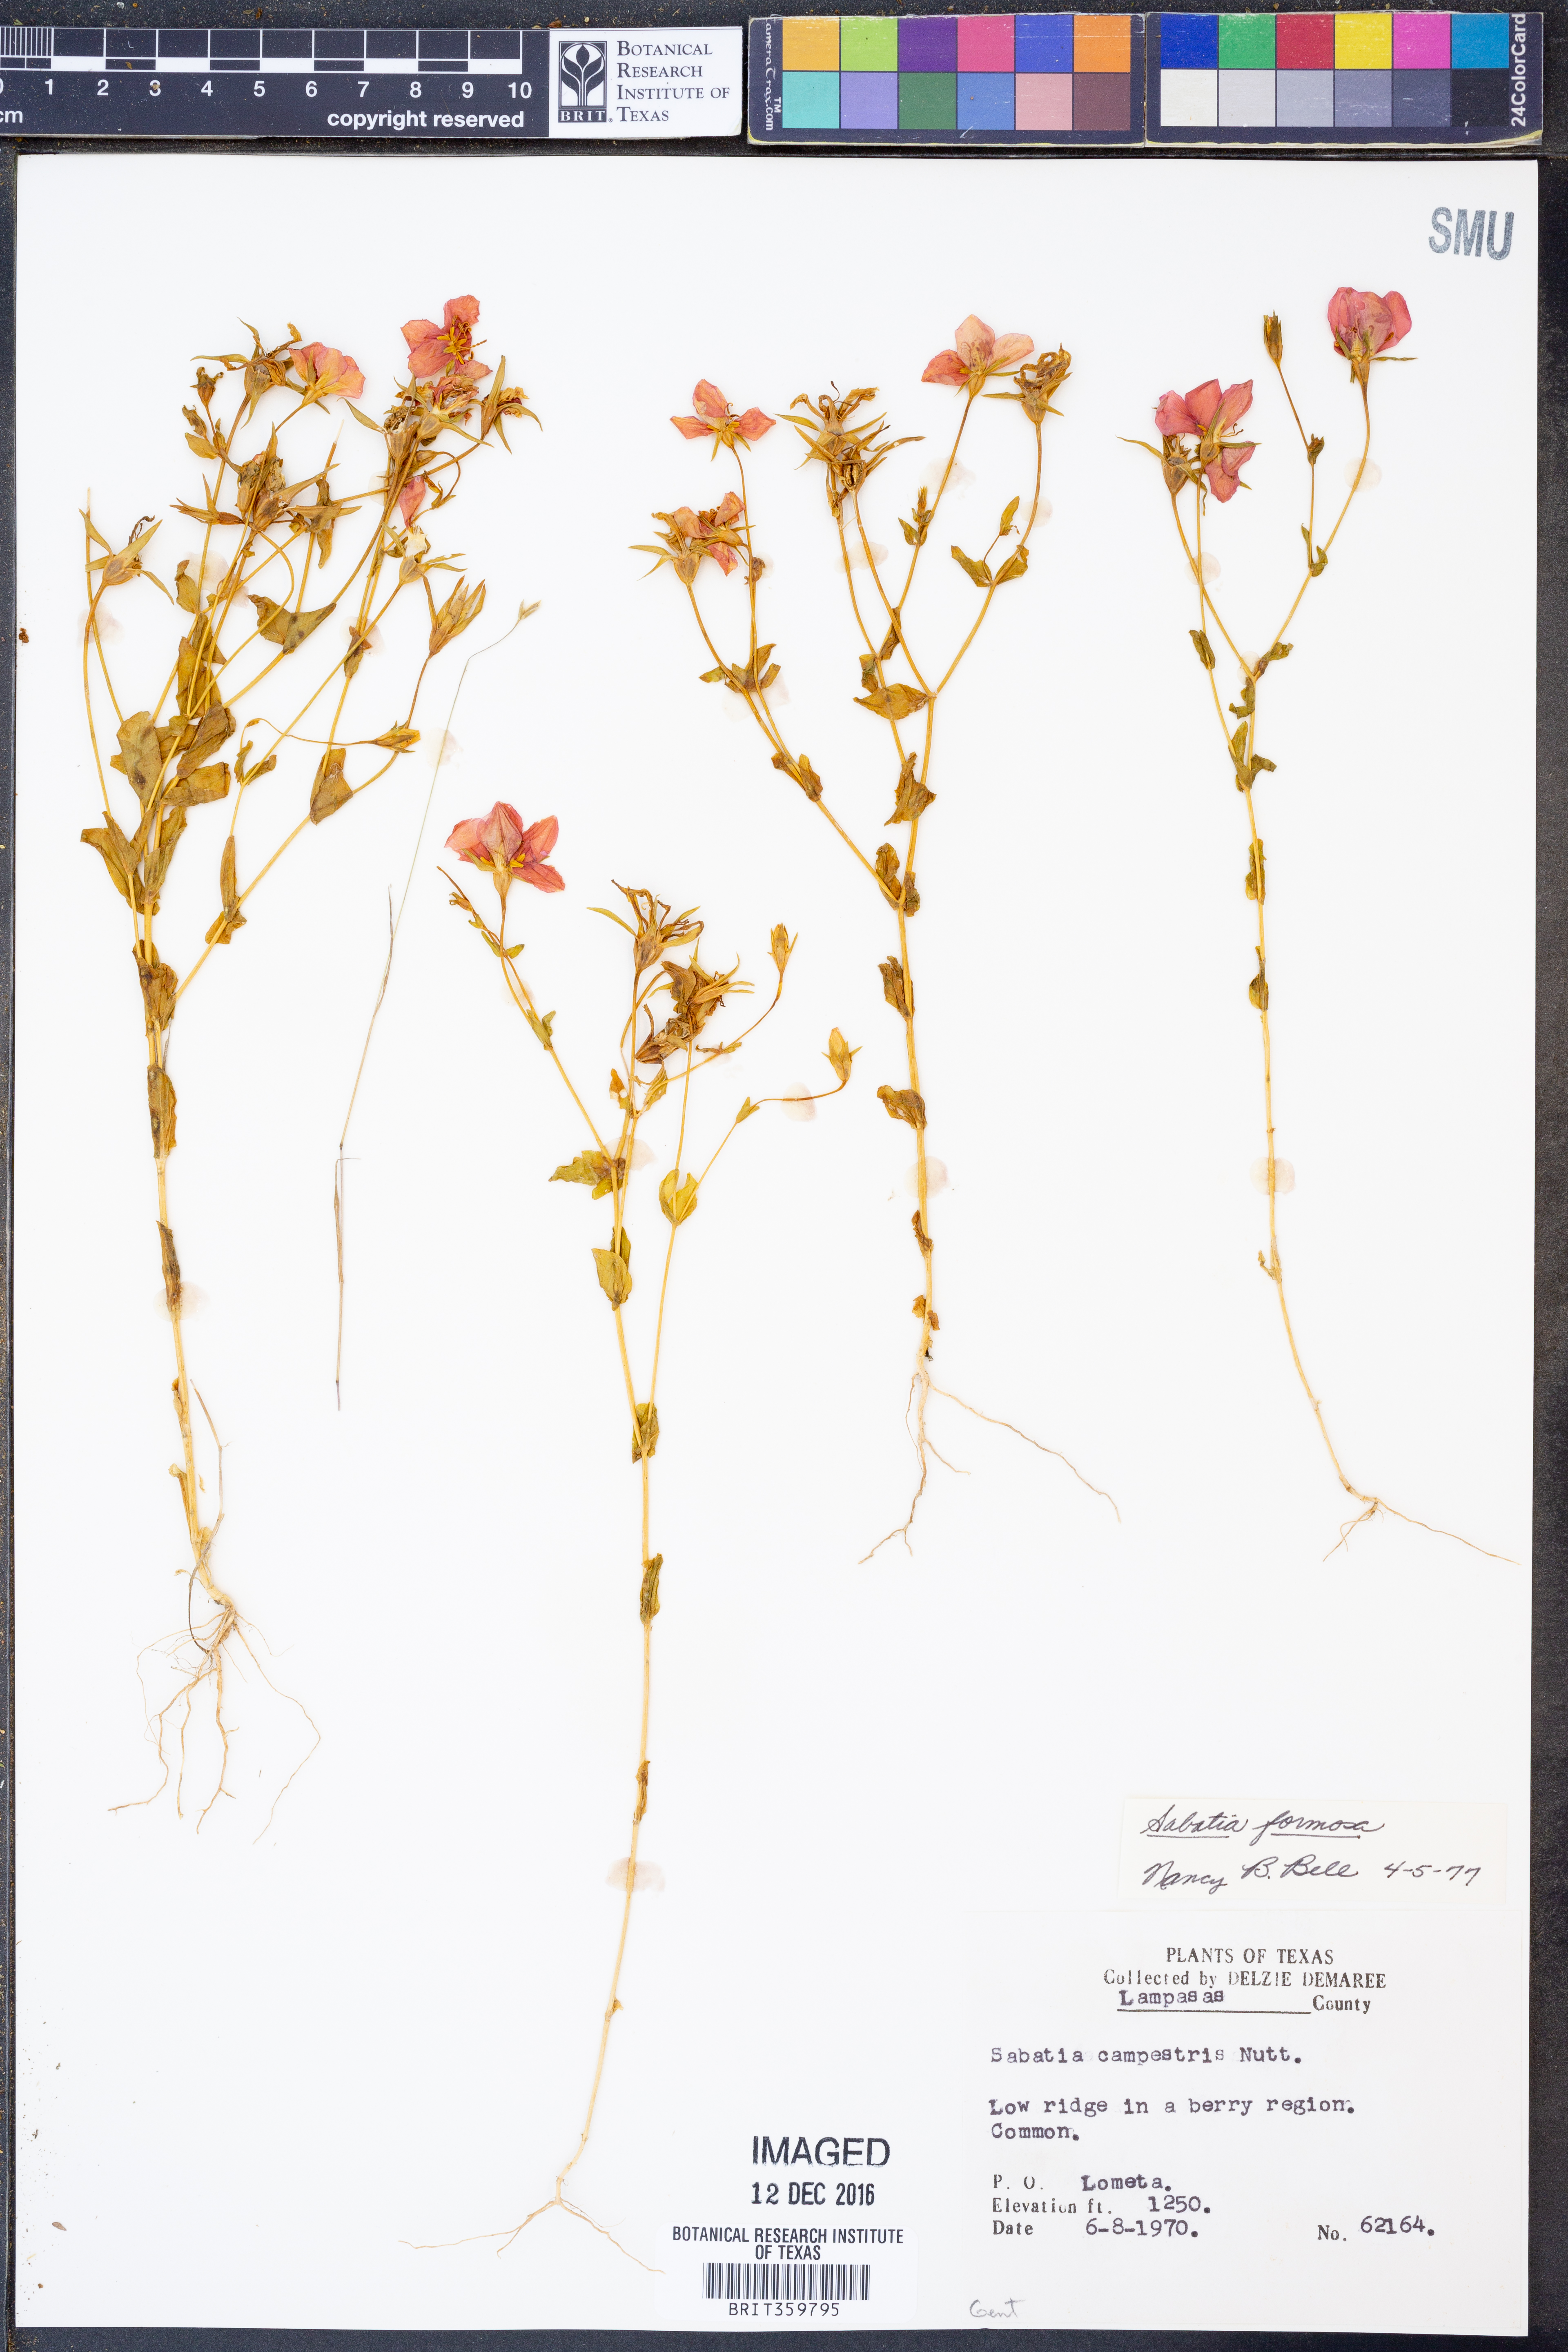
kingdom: Plantae
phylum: Tracheophyta
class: Magnoliopsida
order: Gentianales
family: Gentianaceae
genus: Sabatia
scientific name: Sabatia formosa
